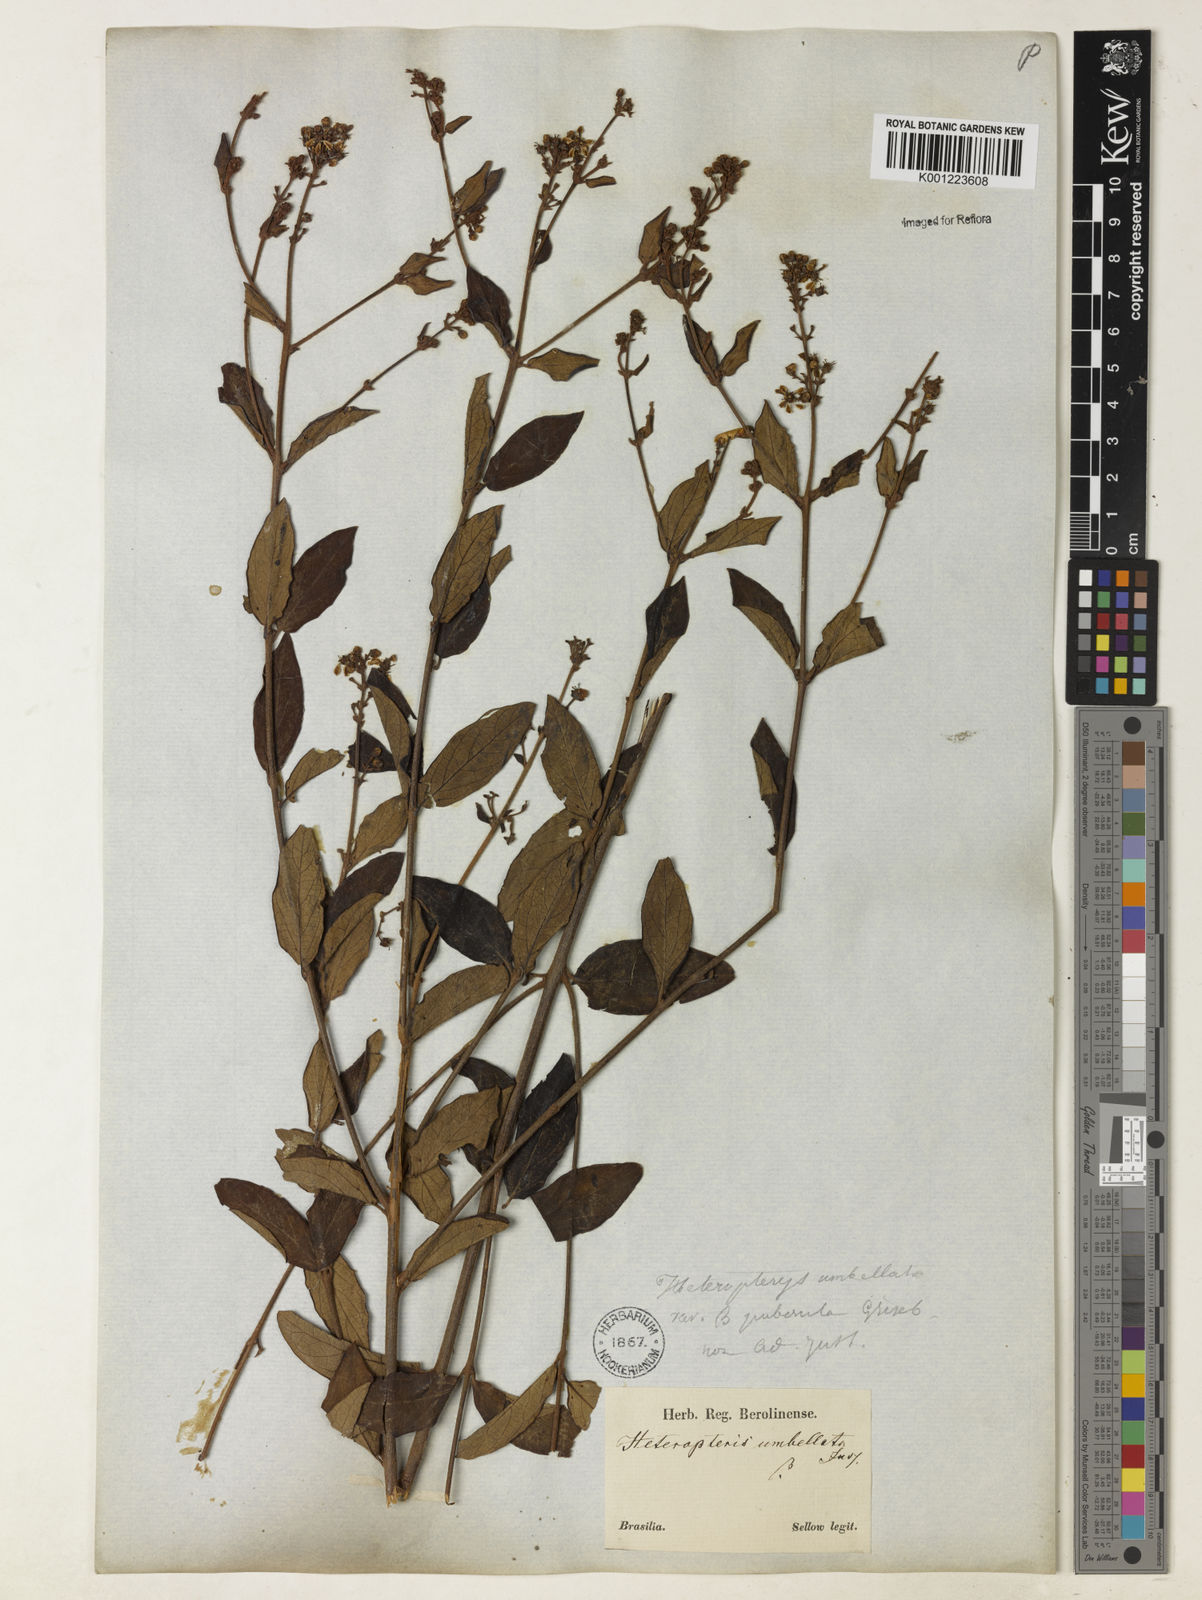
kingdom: Plantae
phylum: Tracheophyta
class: Magnoliopsida
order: Malpighiales
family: Malpighiaceae
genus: Heteropterys
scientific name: Heteropterys umbellata
